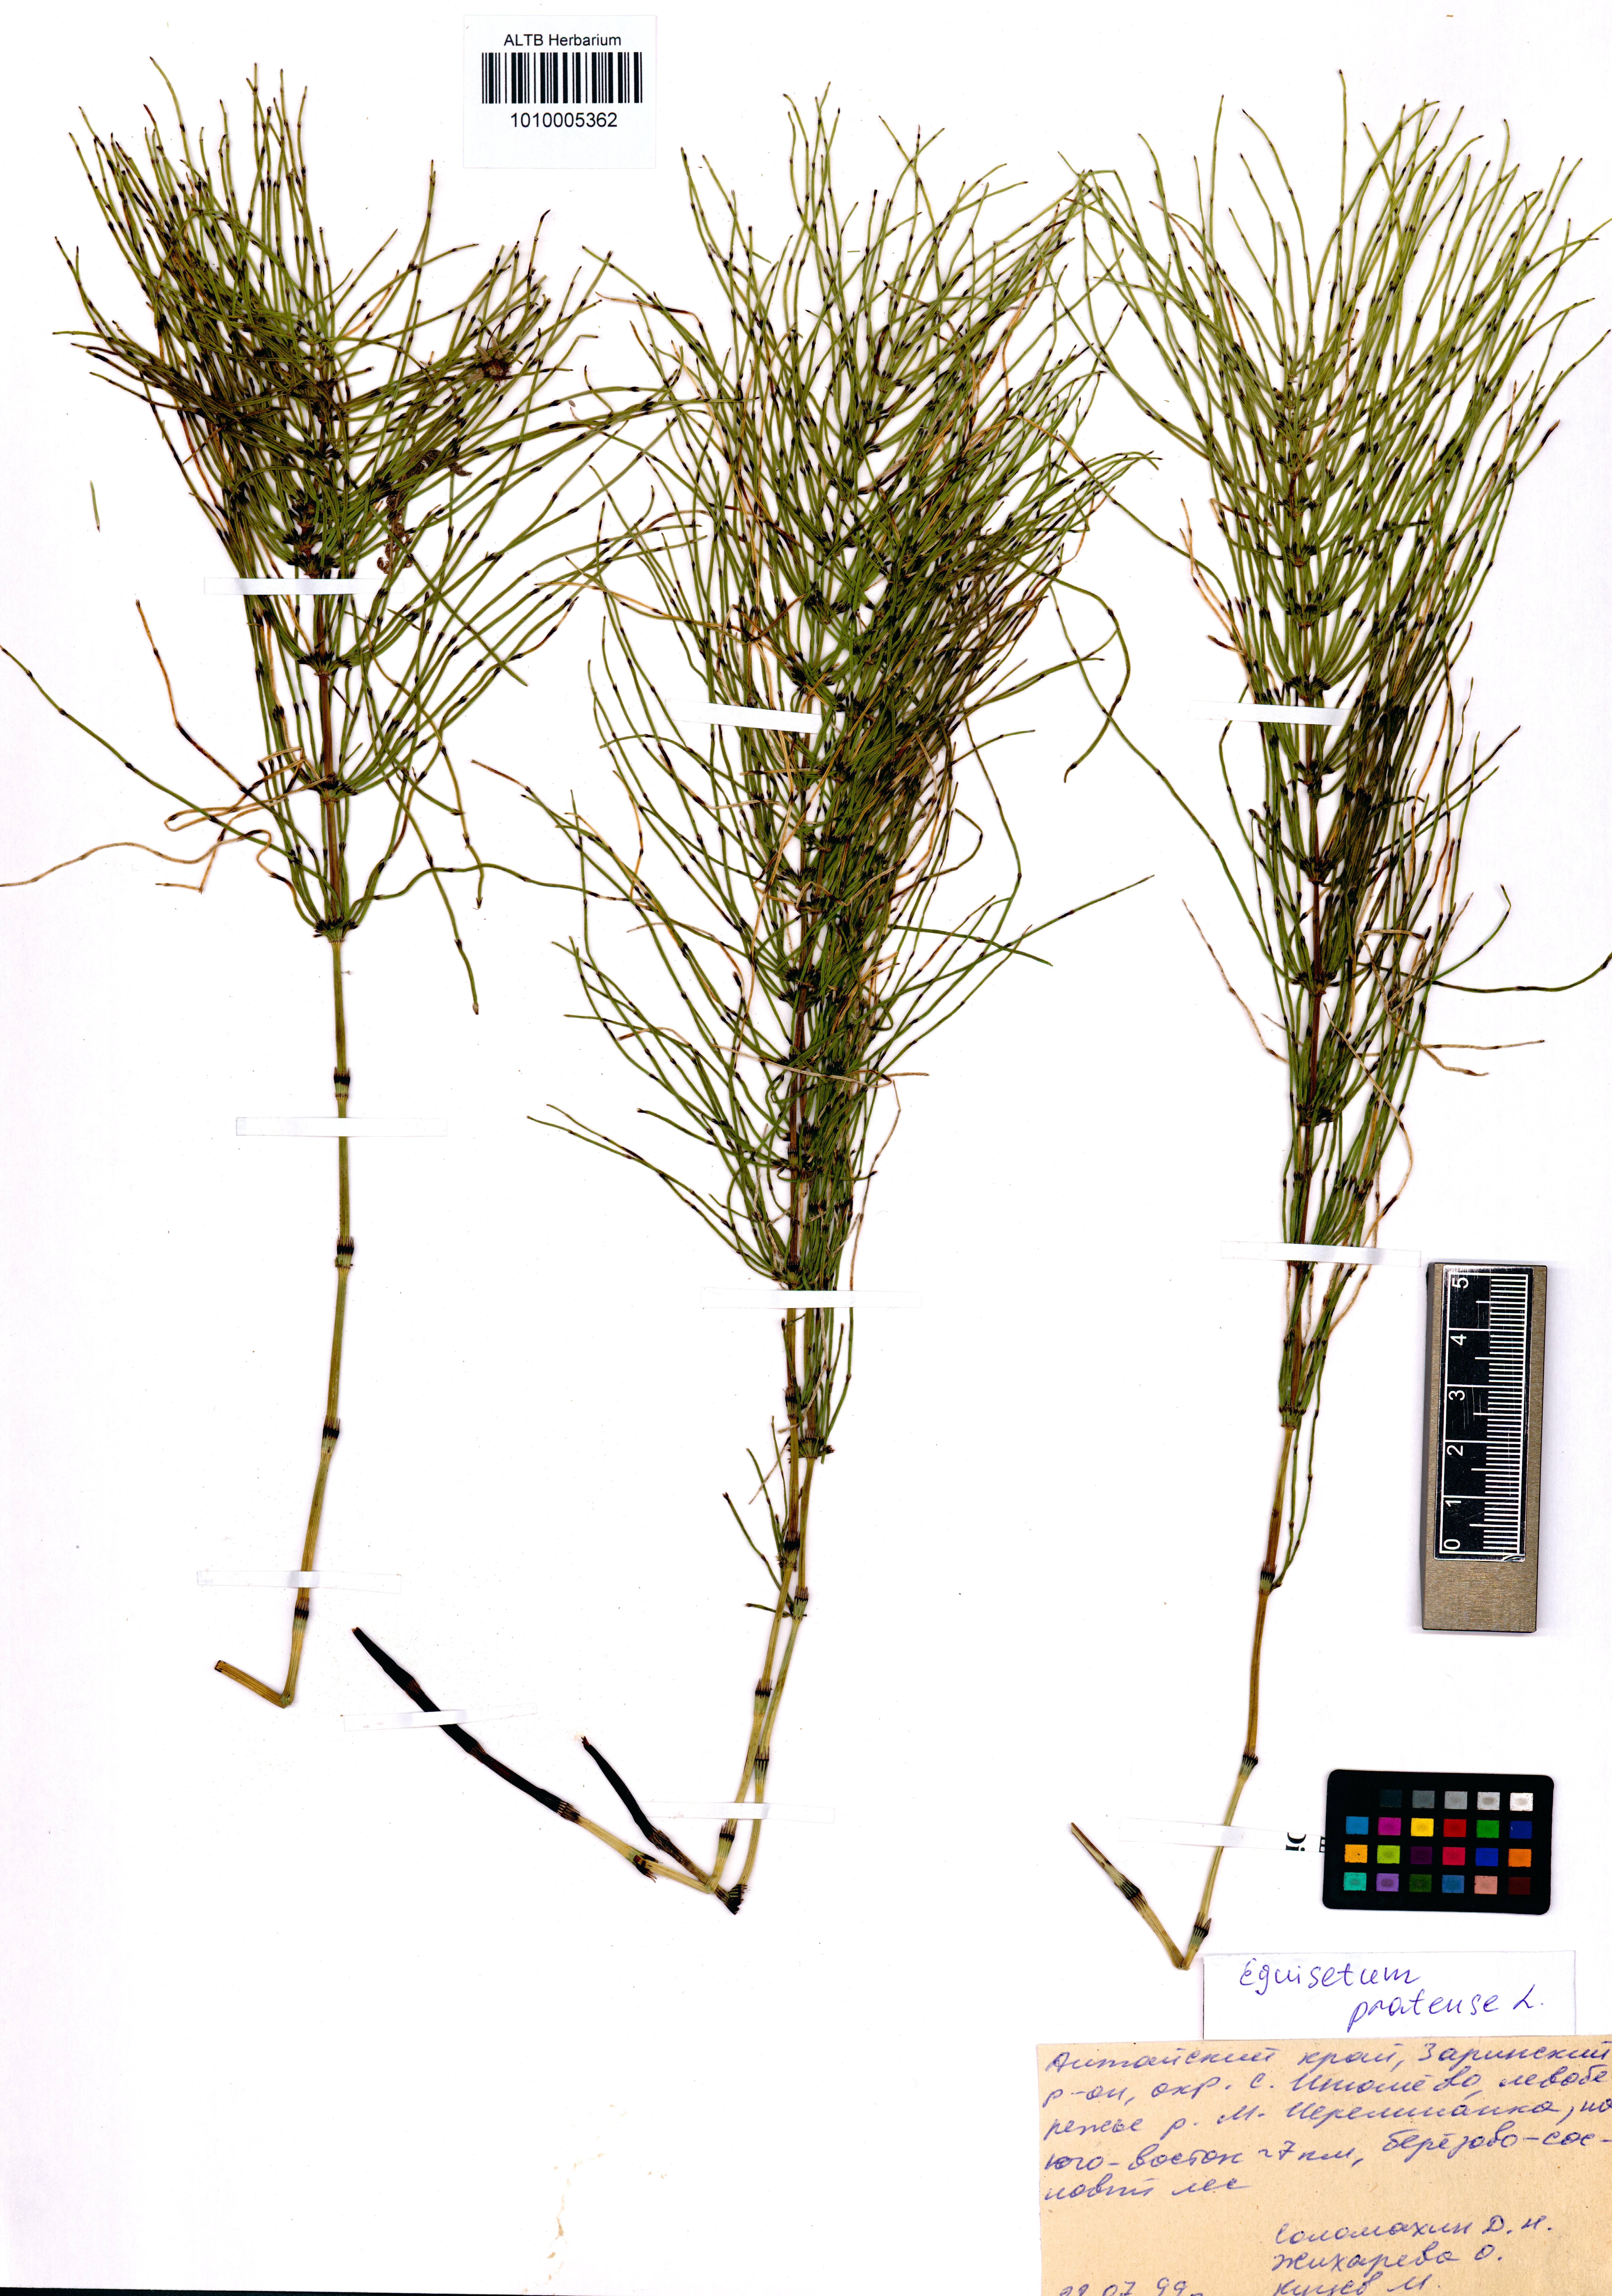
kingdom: Plantae
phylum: Tracheophyta
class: Polypodiopsida
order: Equisetales
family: Equisetaceae
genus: Equisetum
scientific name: Equisetum pratense
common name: Meadow horsetail
